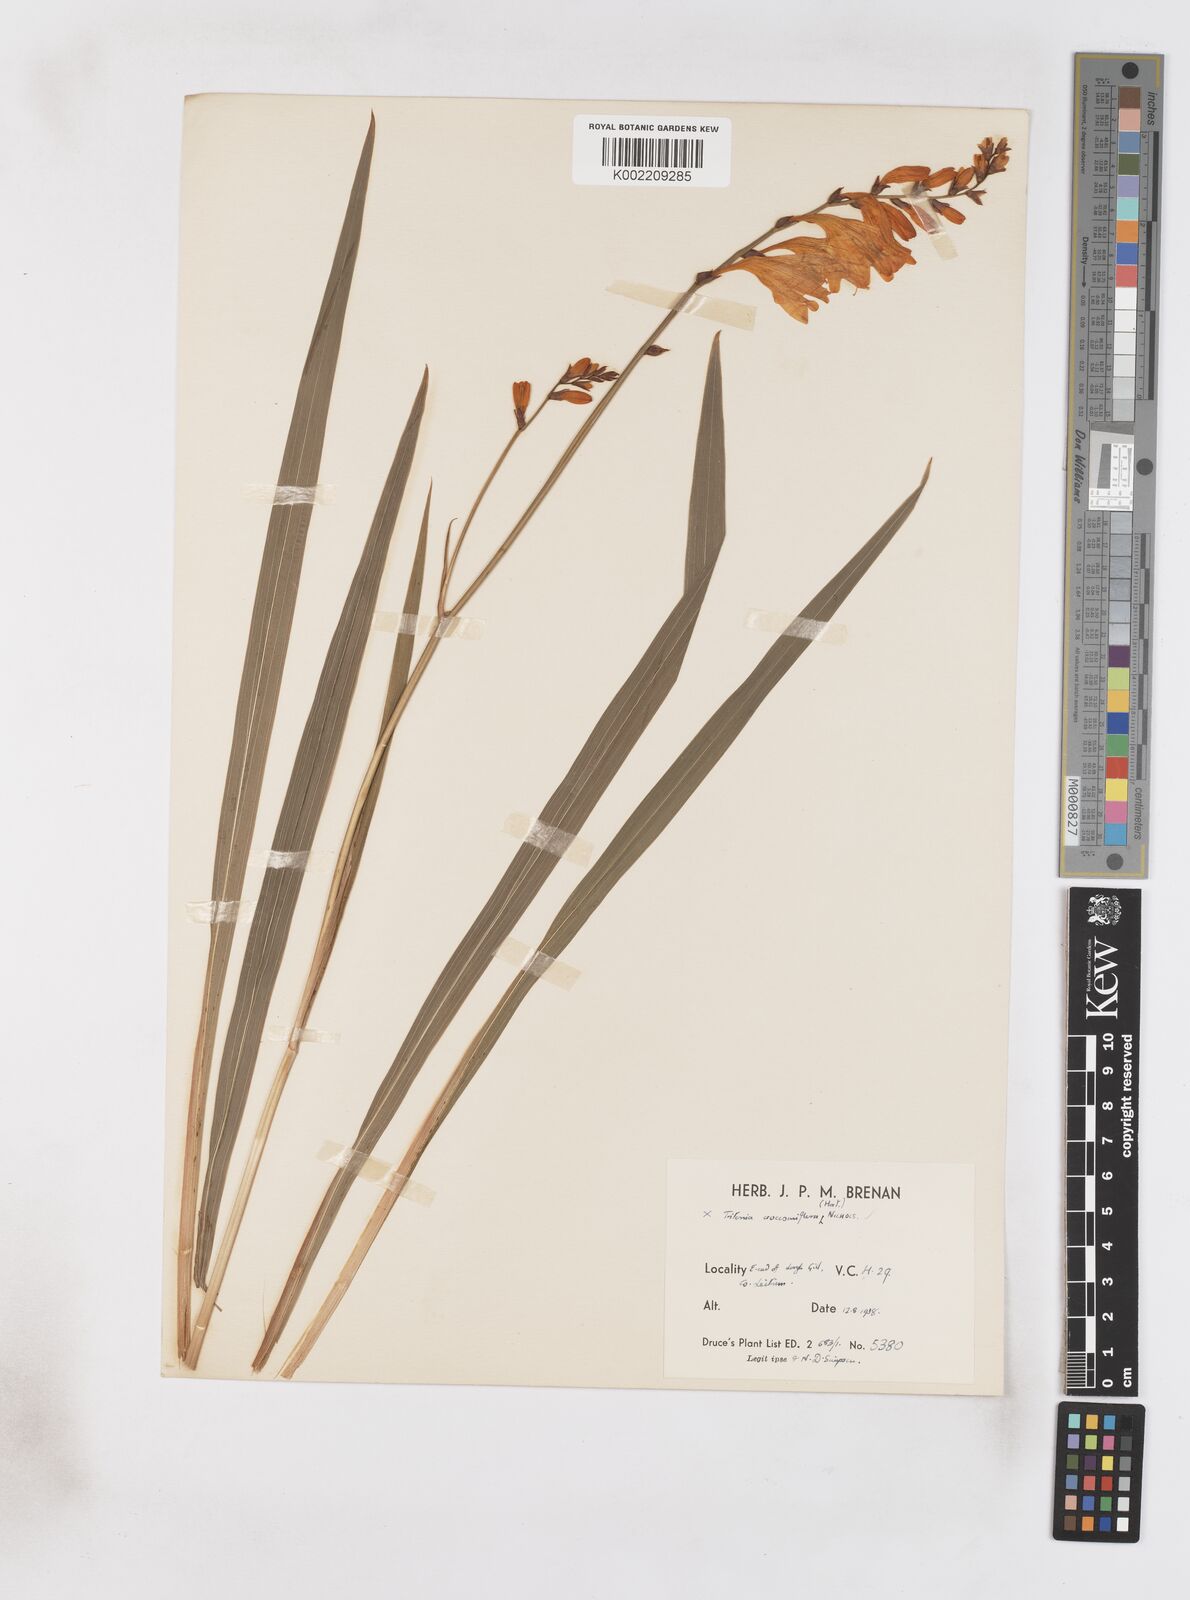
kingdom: Plantae
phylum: Tracheophyta
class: Liliopsida
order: Asparagales
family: Iridaceae
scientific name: Iridaceae
